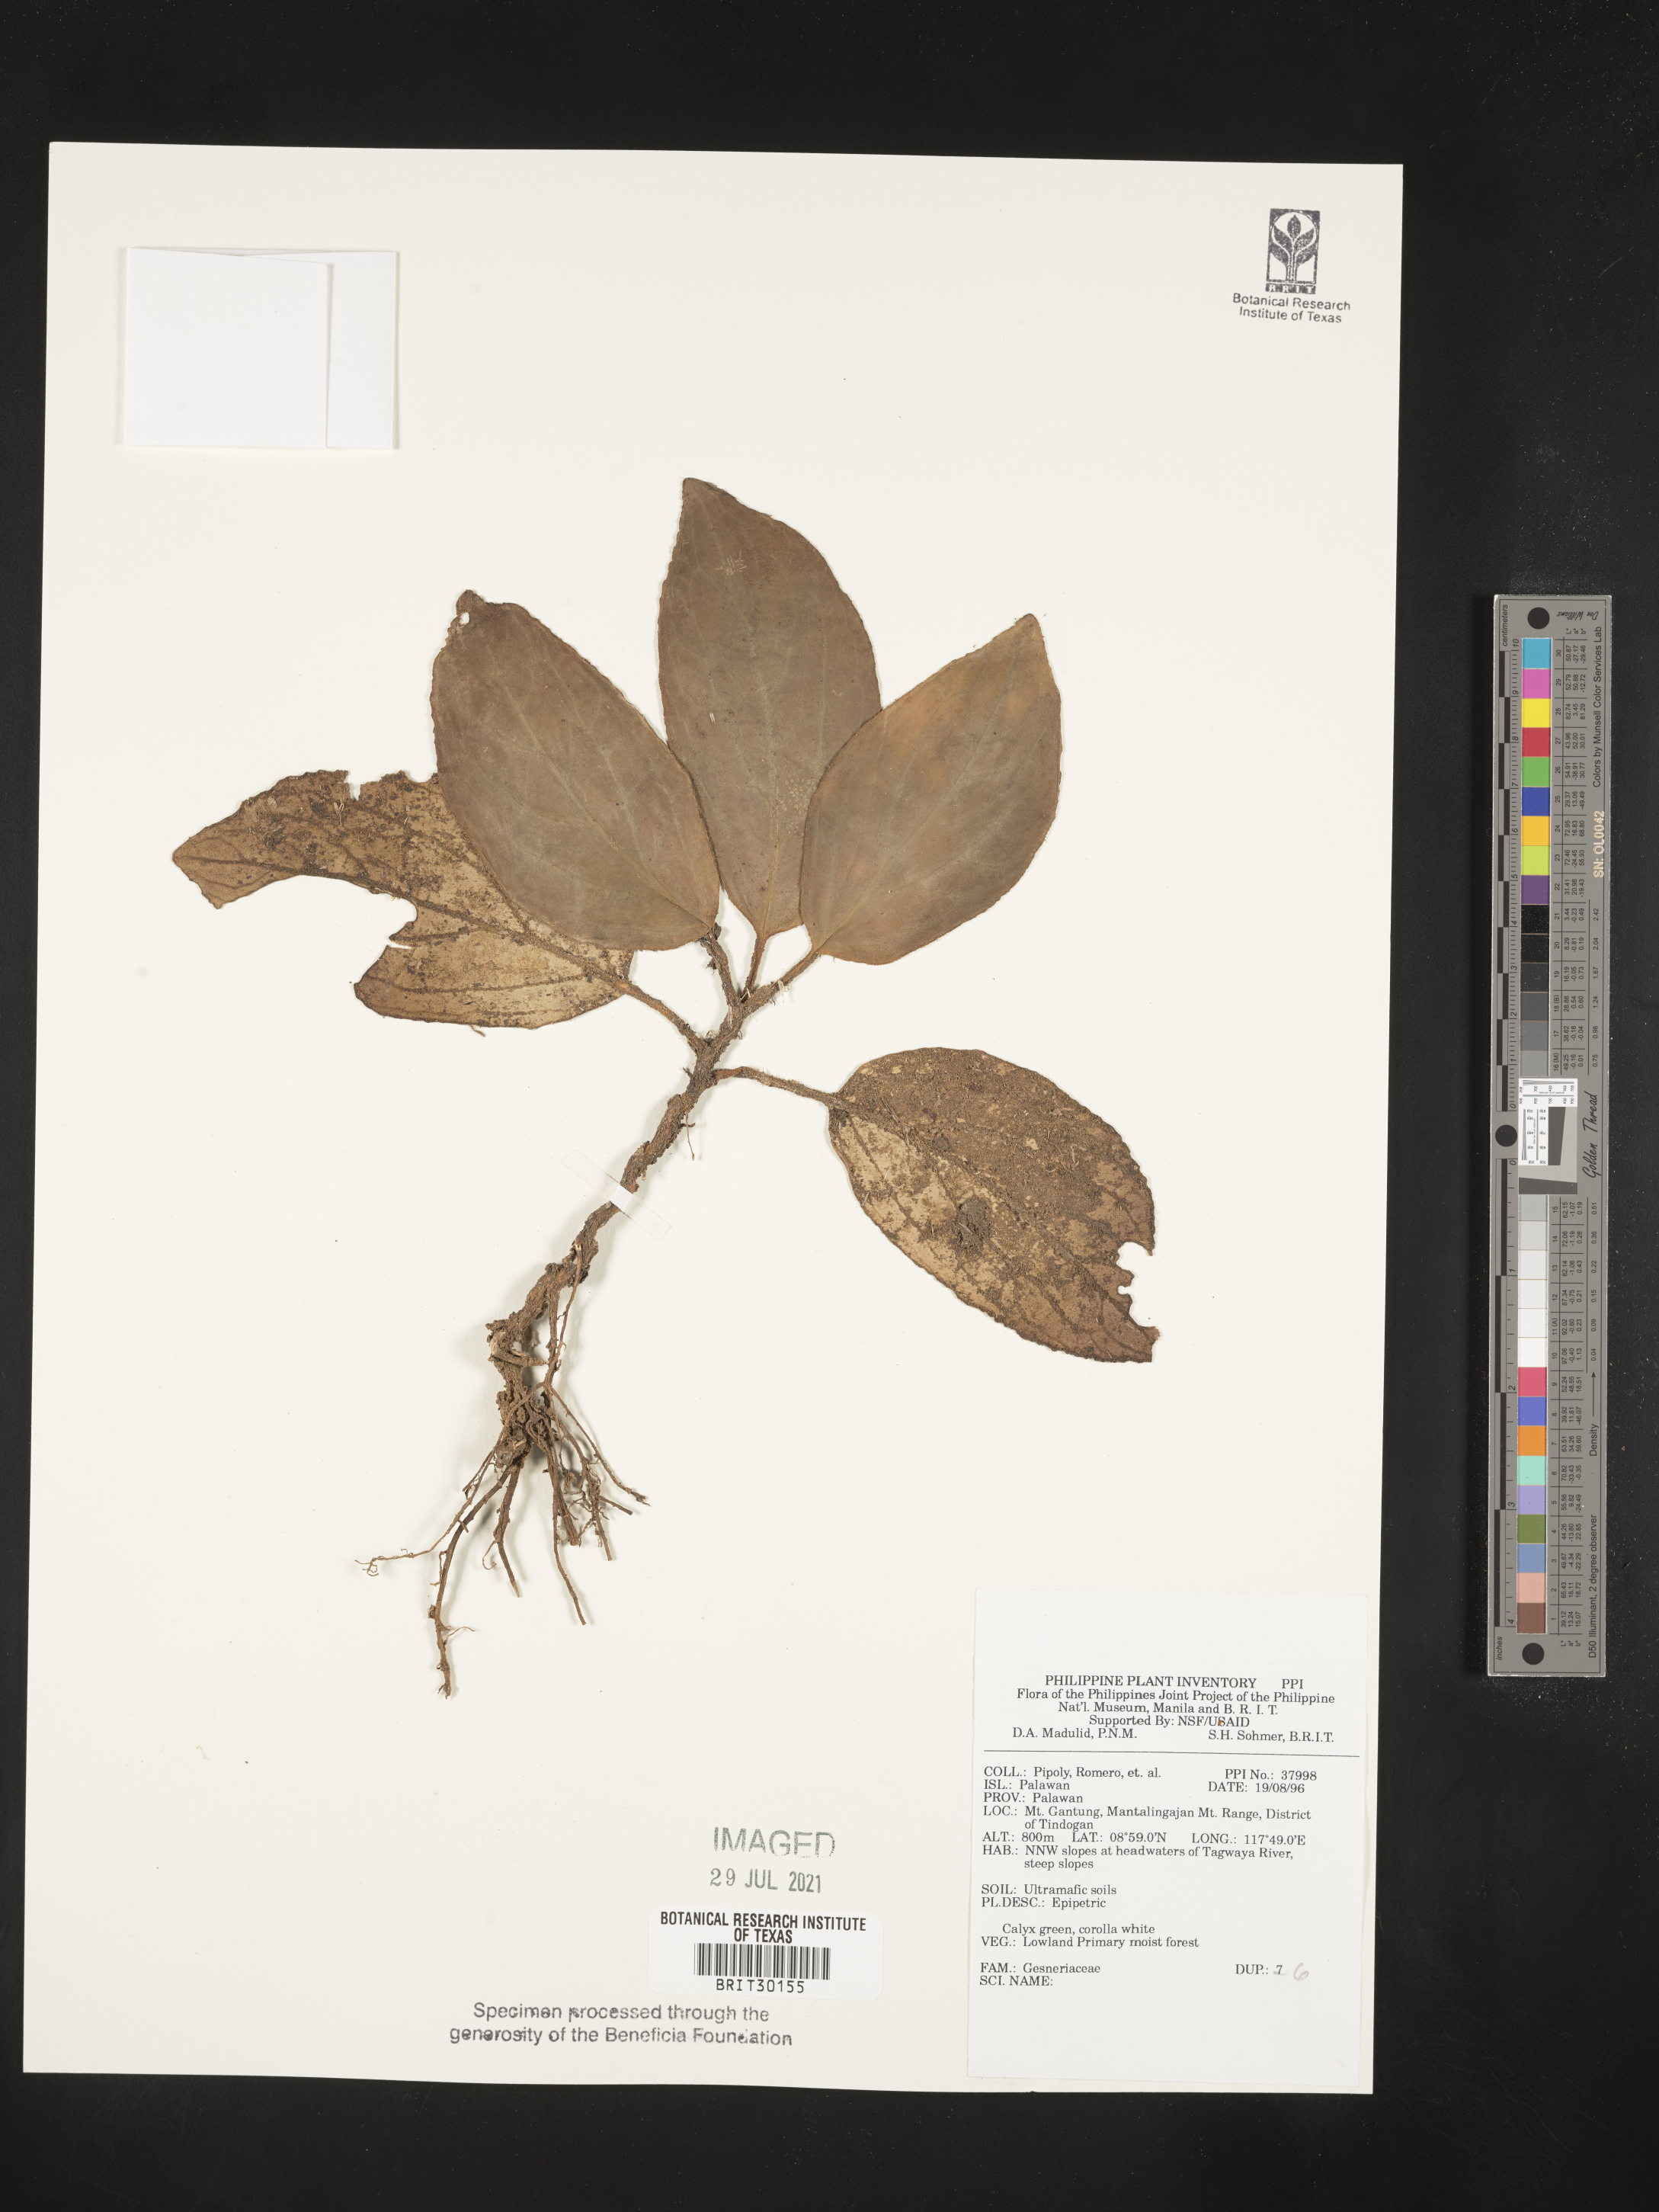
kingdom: Plantae
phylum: Tracheophyta
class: Magnoliopsida
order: Lamiales
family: Gesneriaceae
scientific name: Gesneriaceae
